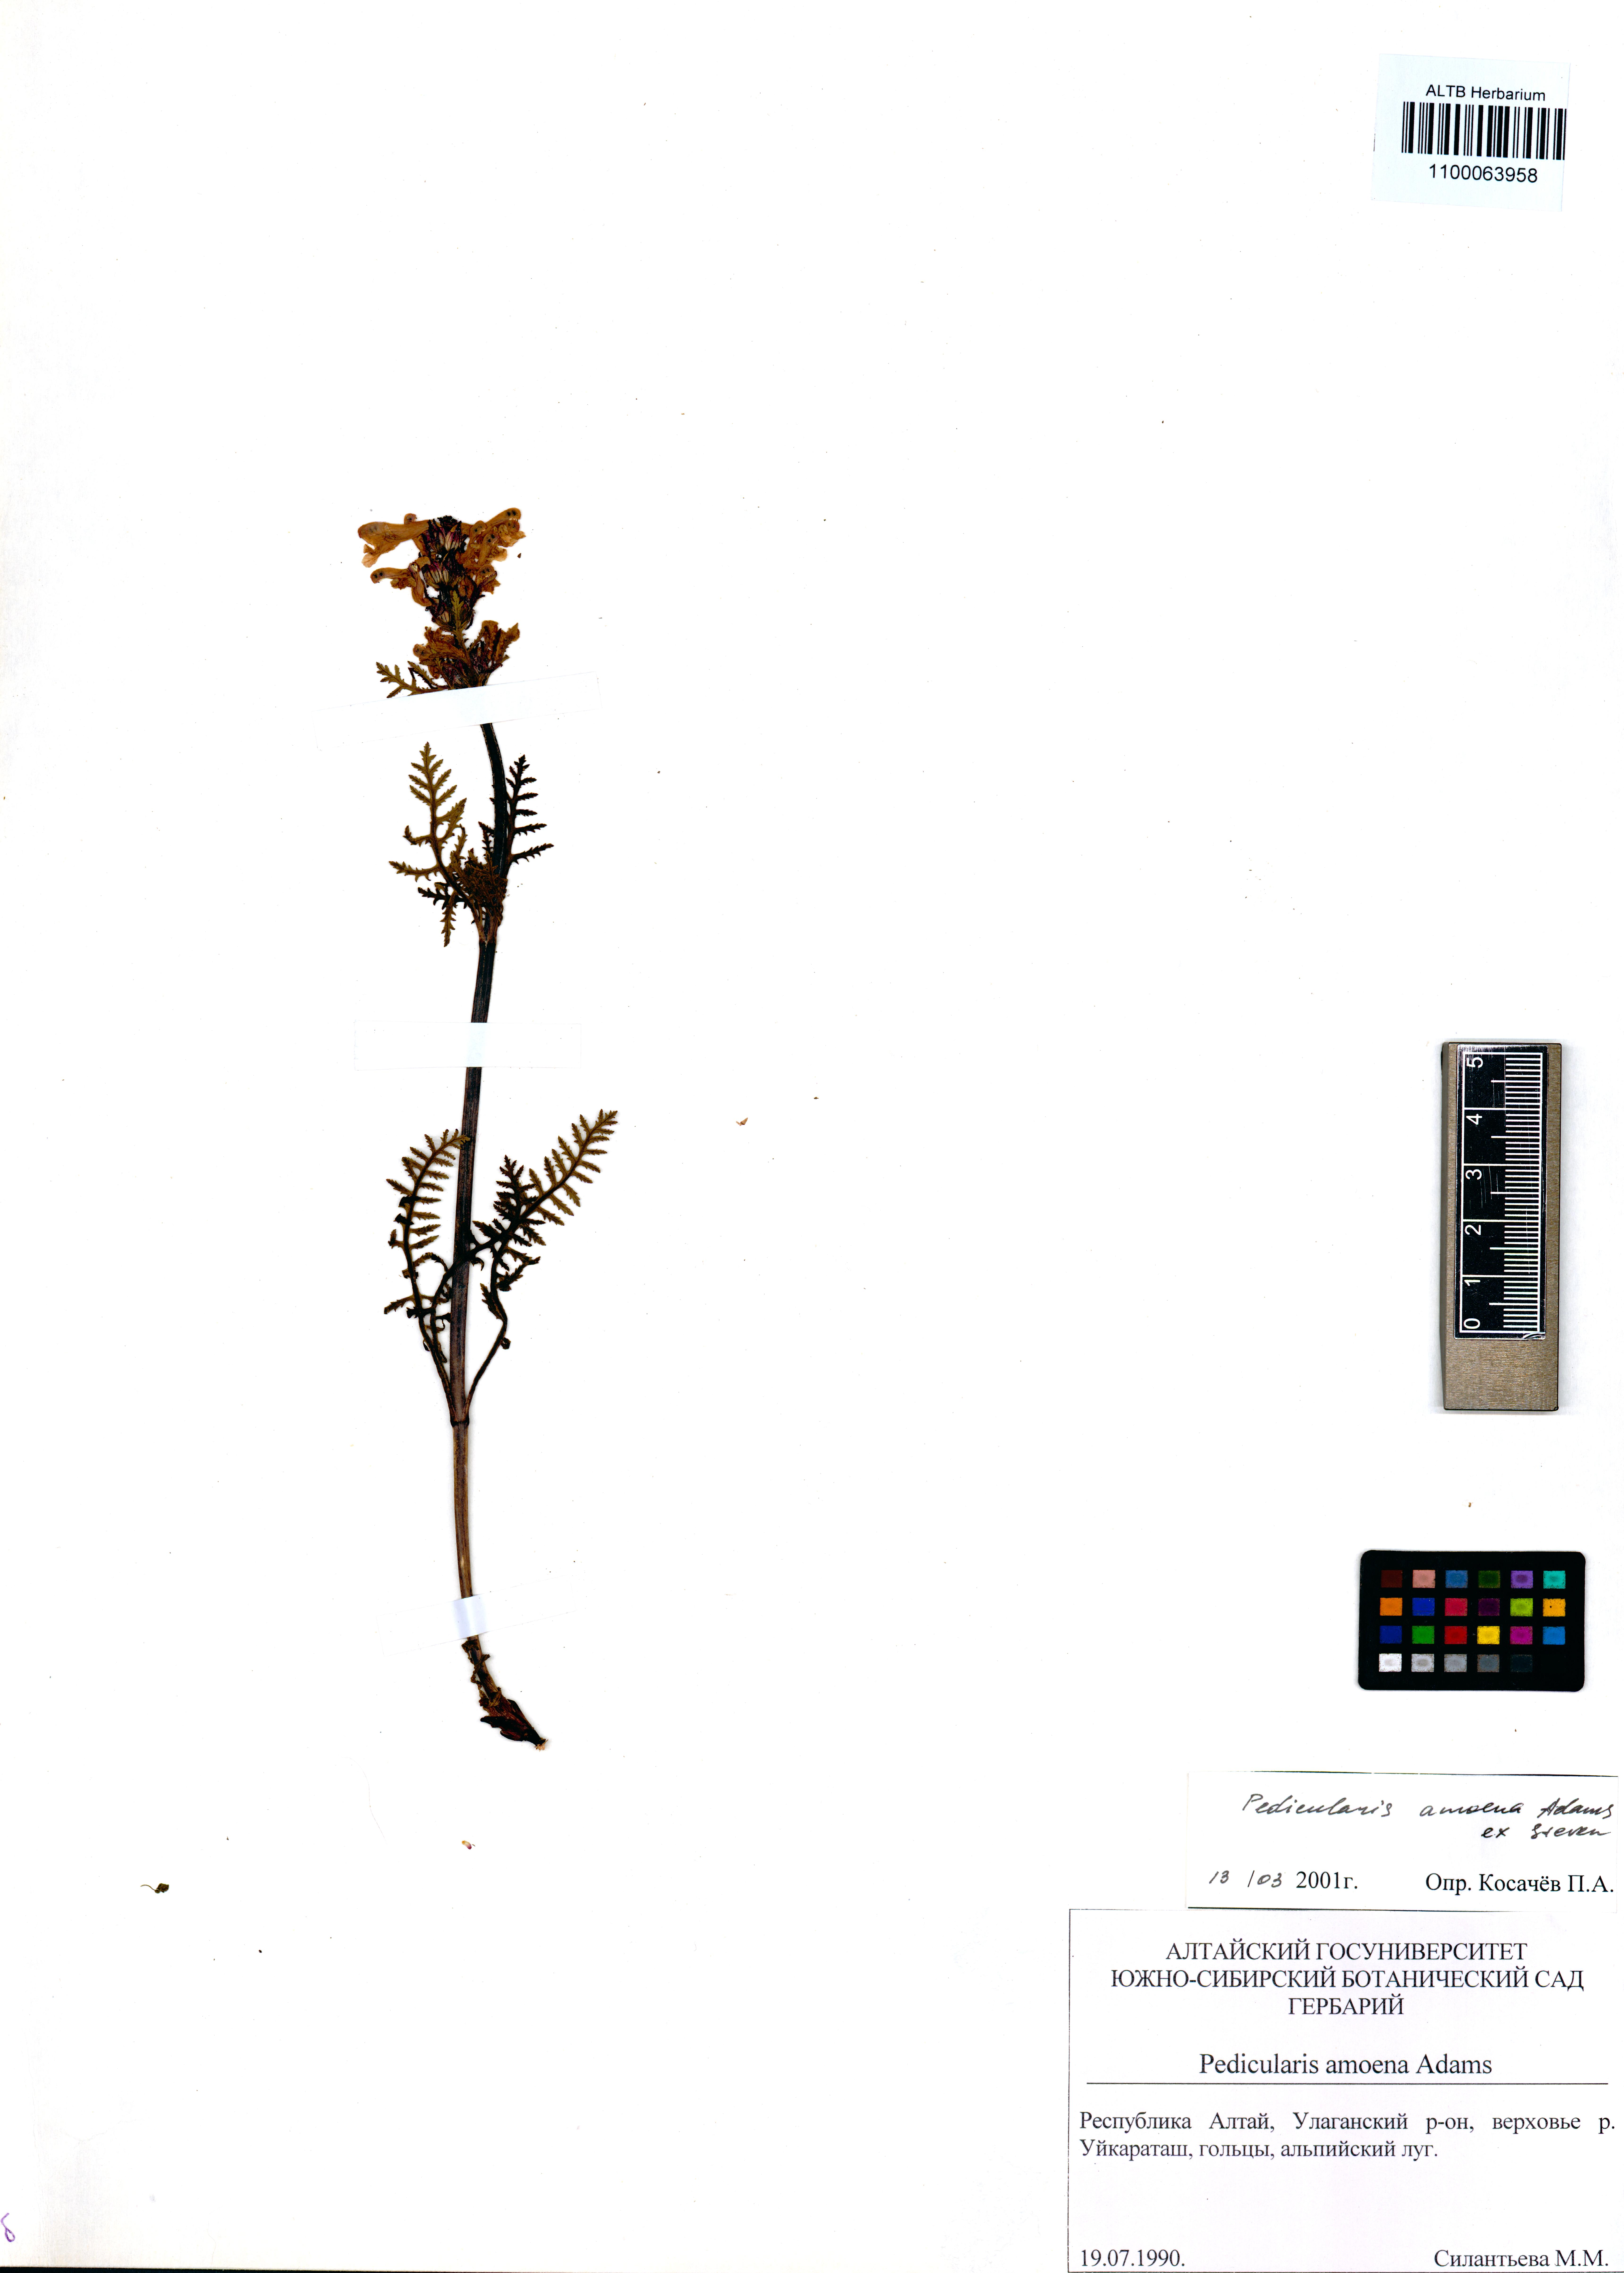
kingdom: Plantae
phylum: Tracheophyta
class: Magnoliopsida
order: Lamiales
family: Orobanchaceae
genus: Pedicularis
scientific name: Pedicularis amoena
